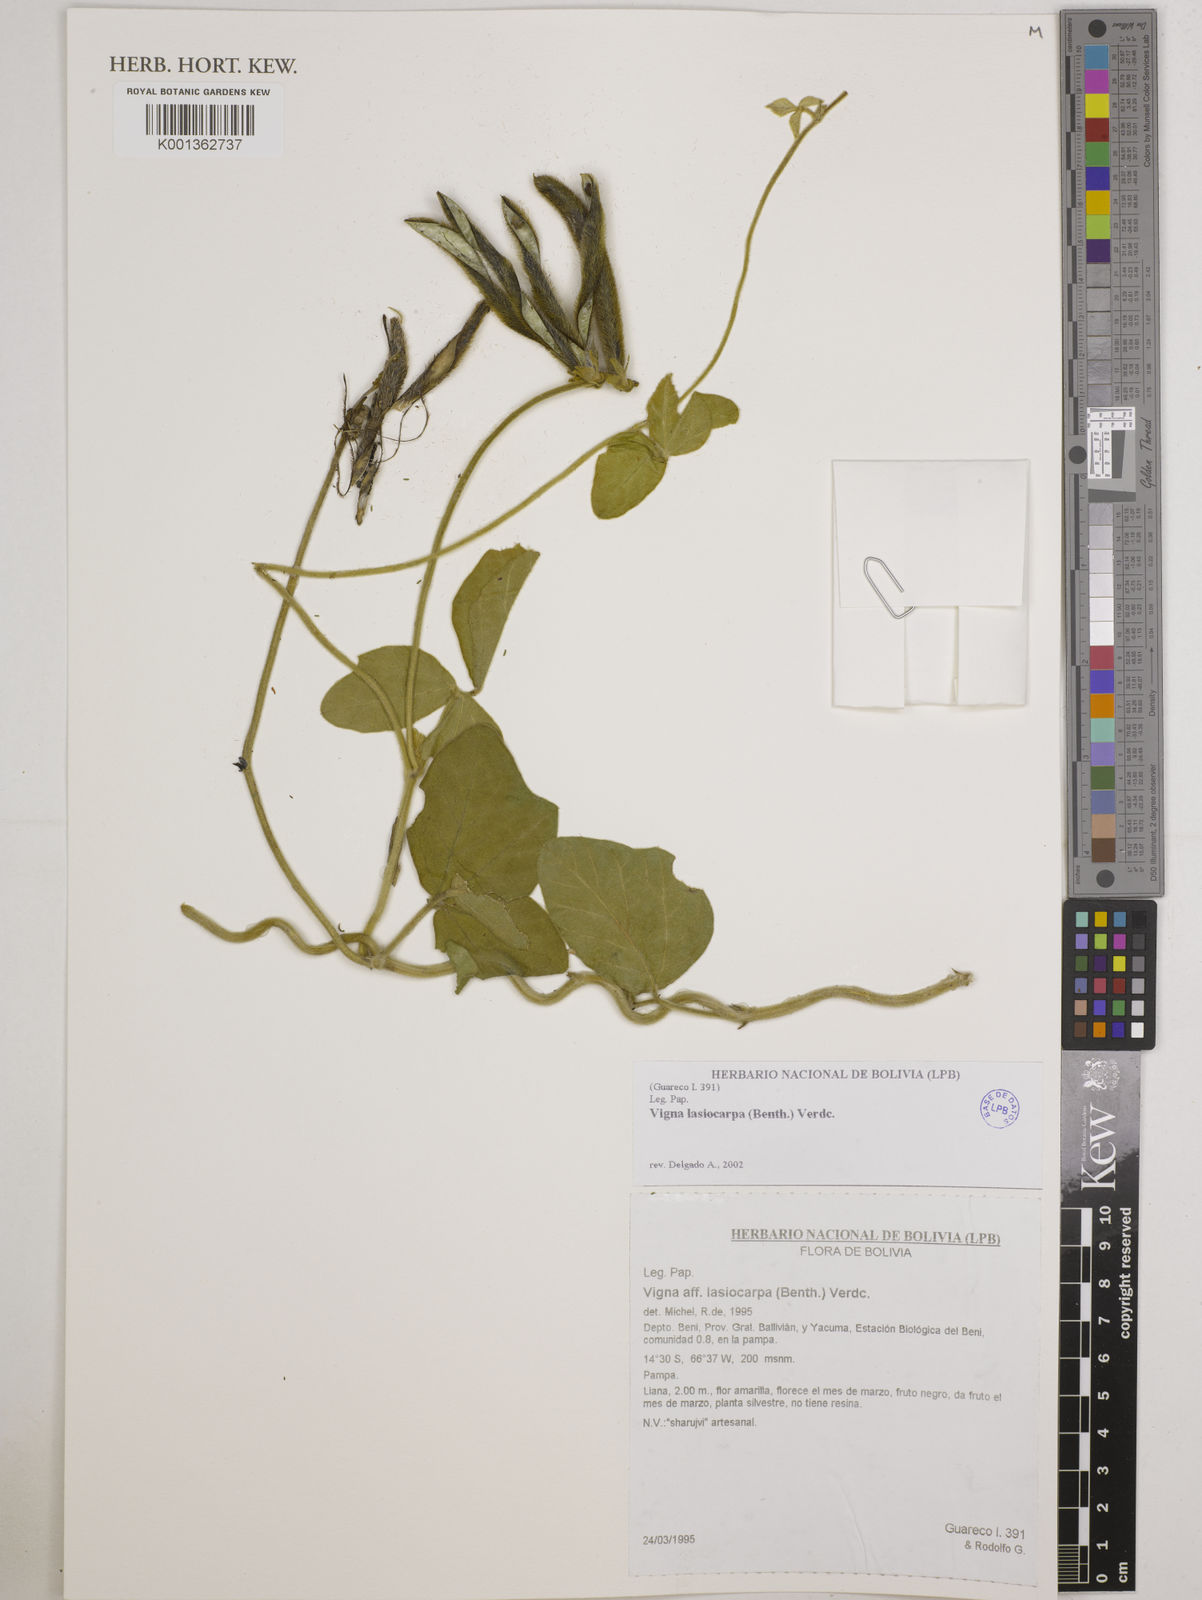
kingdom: Plantae
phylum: Tracheophyta
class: Magnoliopsida
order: Fabales
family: Fabaceae
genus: Vigna
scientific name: Vigna lasiocarpa
